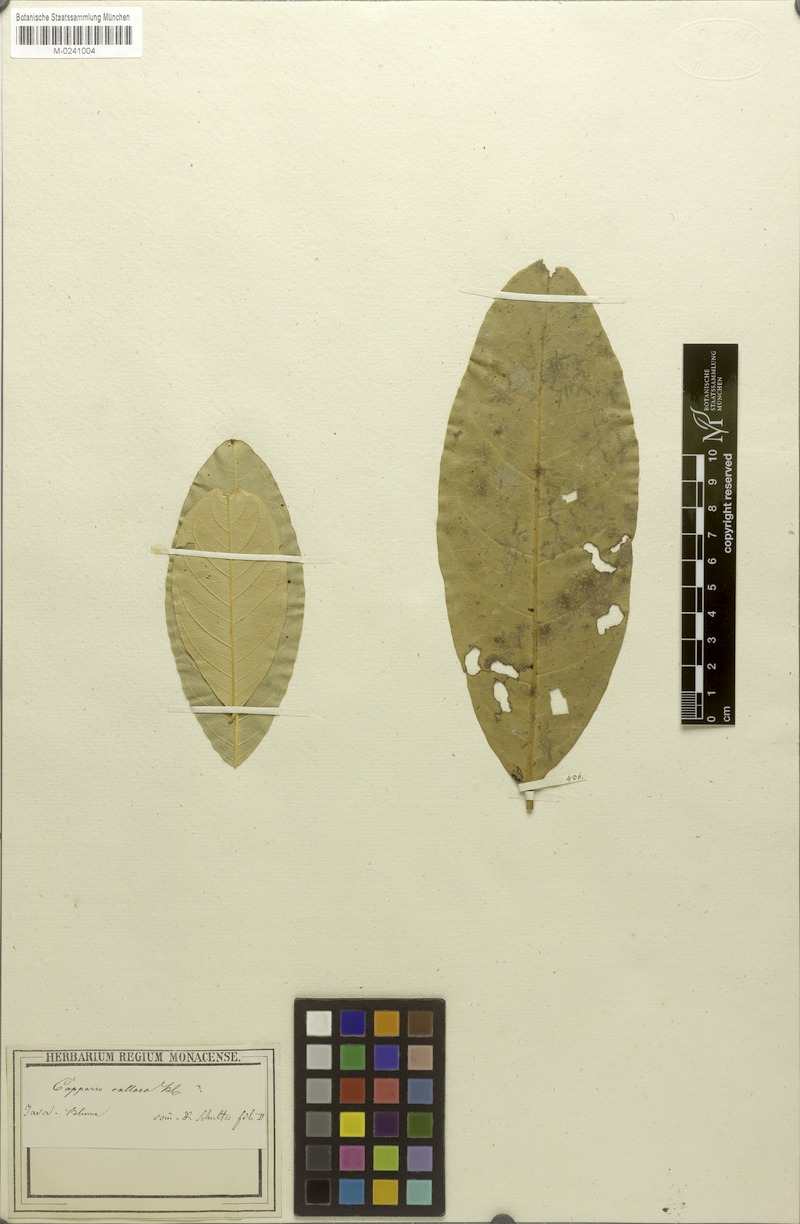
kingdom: Plantae
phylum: Tracheophyta
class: Magnoliopsida
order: Brassicales
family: Capparaceae
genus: Capparis
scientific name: Capparis micracantha
